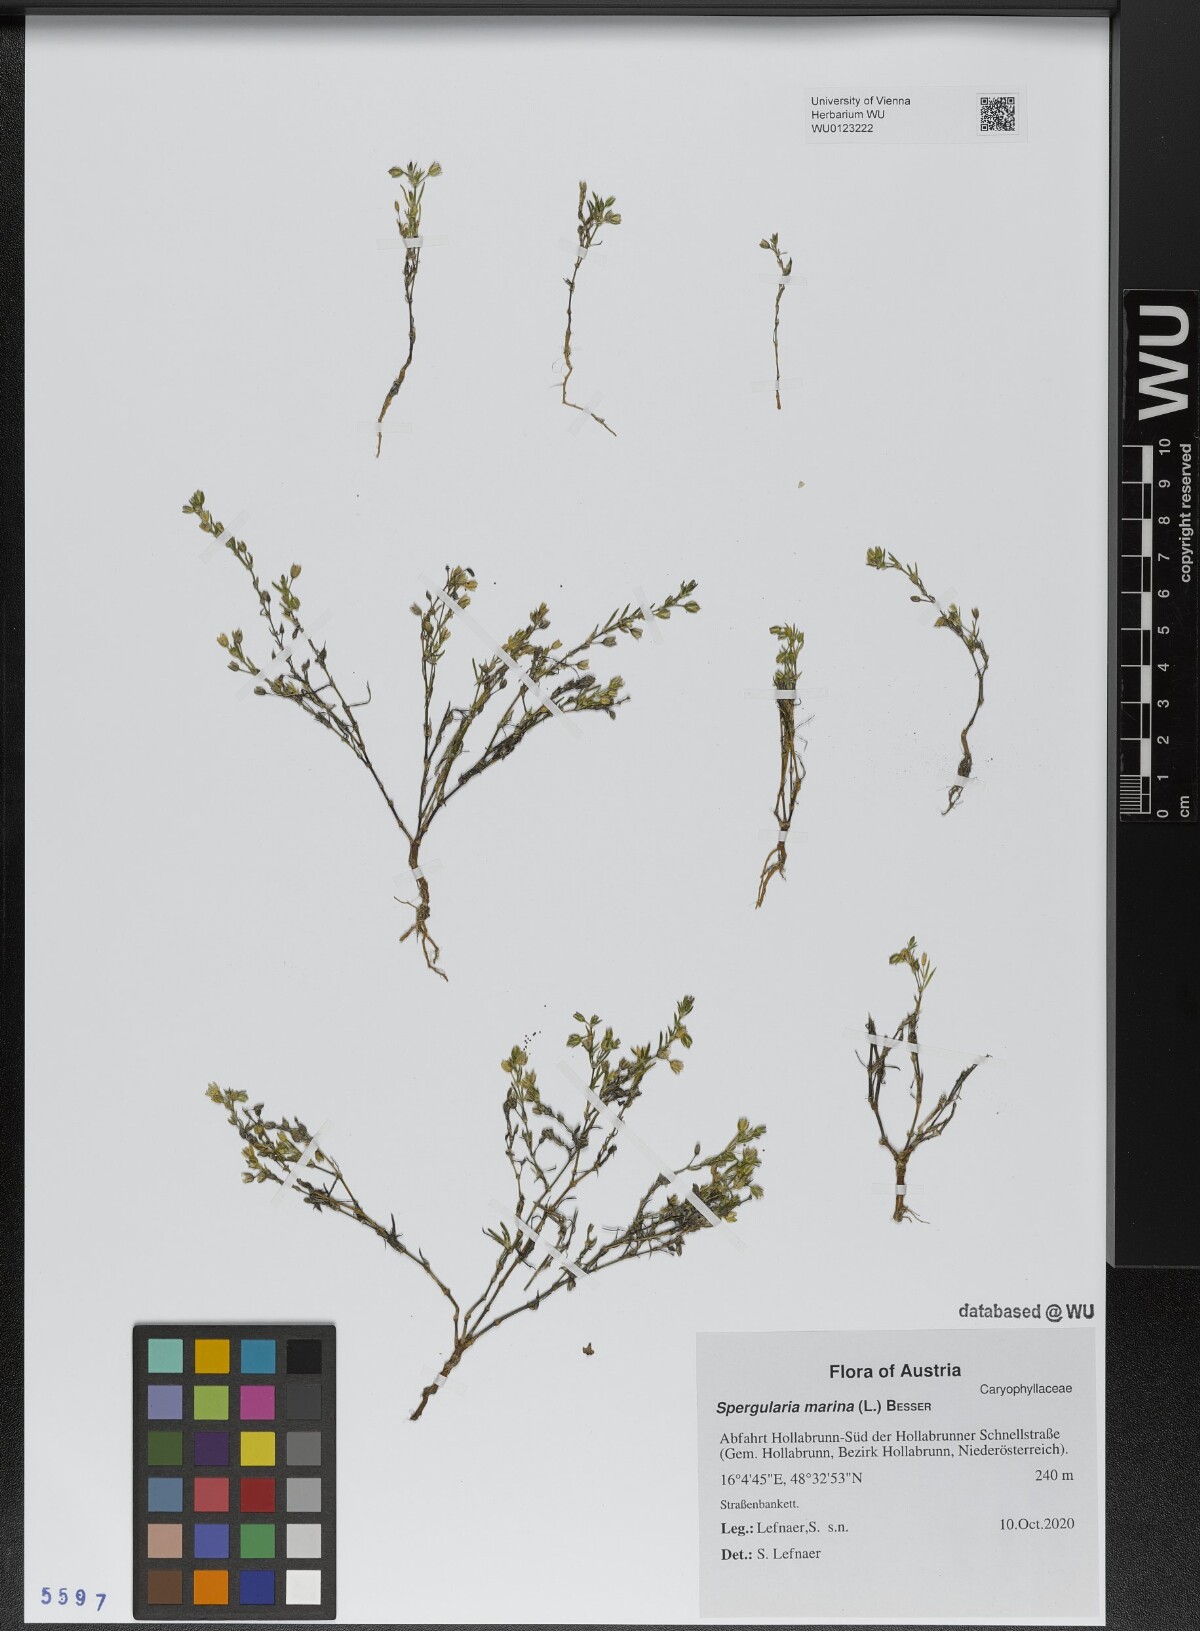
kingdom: Plantae
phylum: Tracheophyta
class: Magnoliopsida
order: Caryophyllales
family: Caryophyllaceae
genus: Spergularia
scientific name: Spergularia marina
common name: Lesser sea-spurrey
